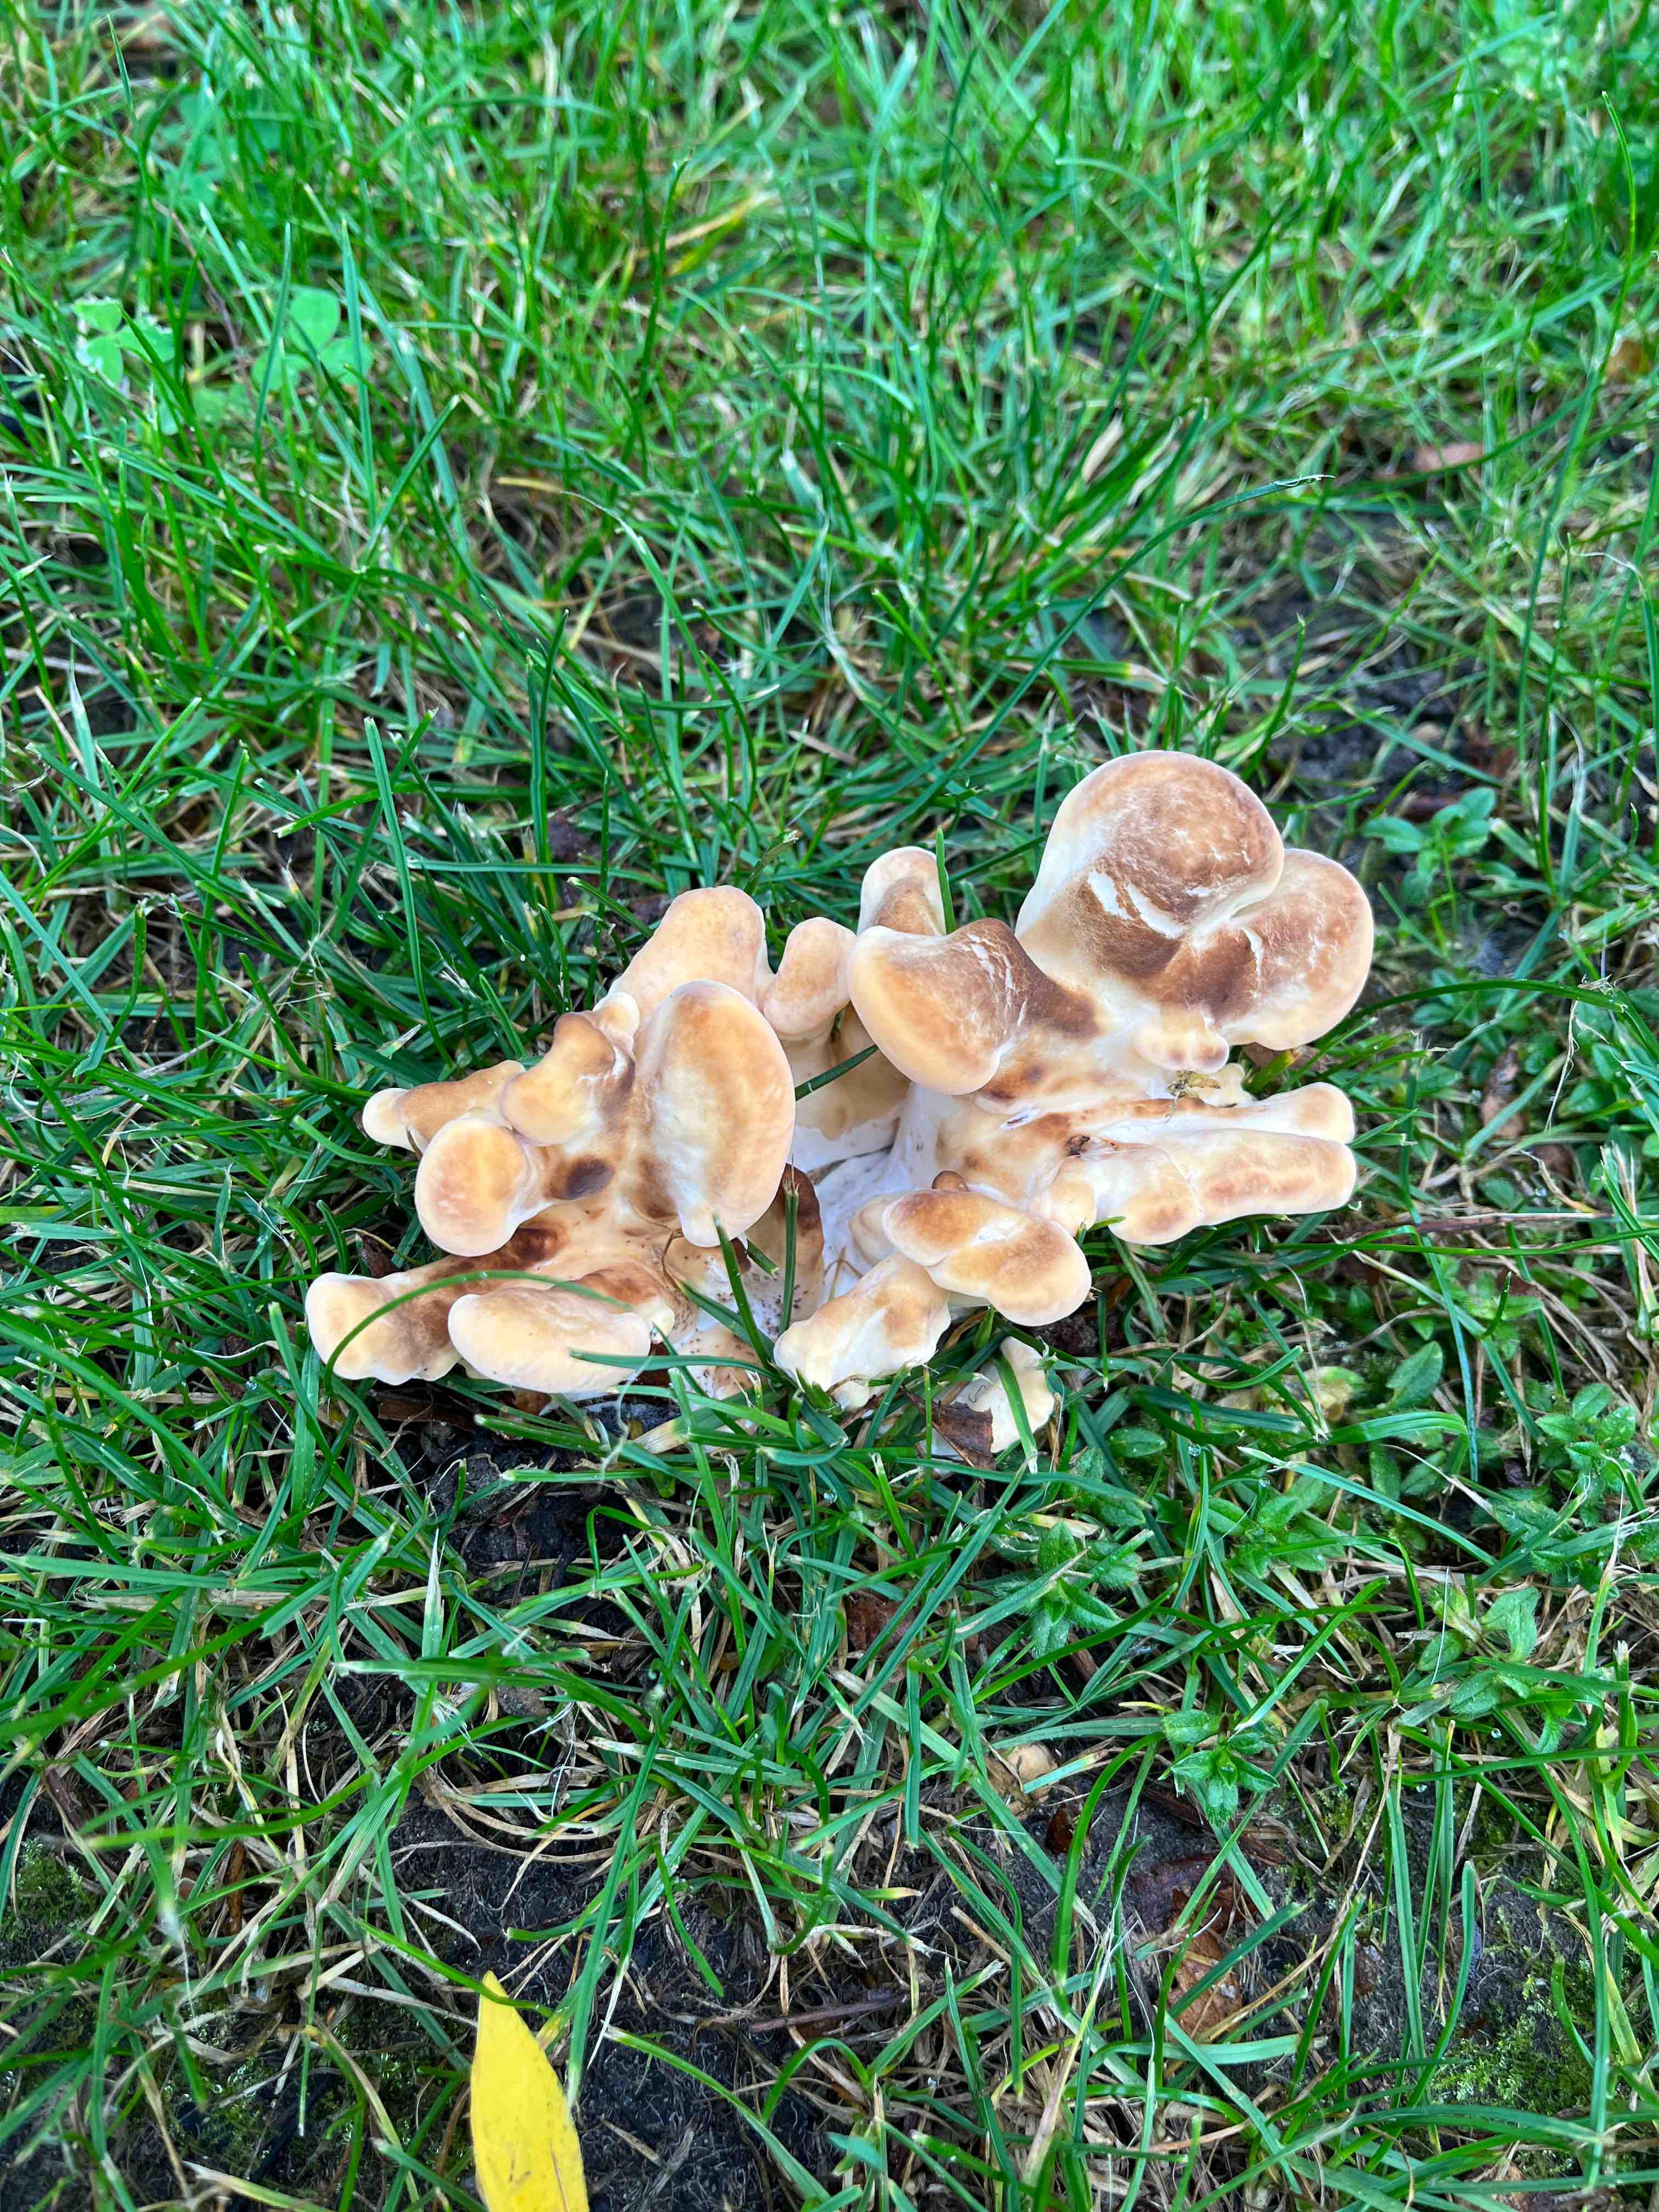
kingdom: Fungi
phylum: Basidiomycota
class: Agaricomycetes
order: Polyporales
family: Meripilaceae
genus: Meripilus
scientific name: Meripilus giganteus
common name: kæmpeporesvamp
